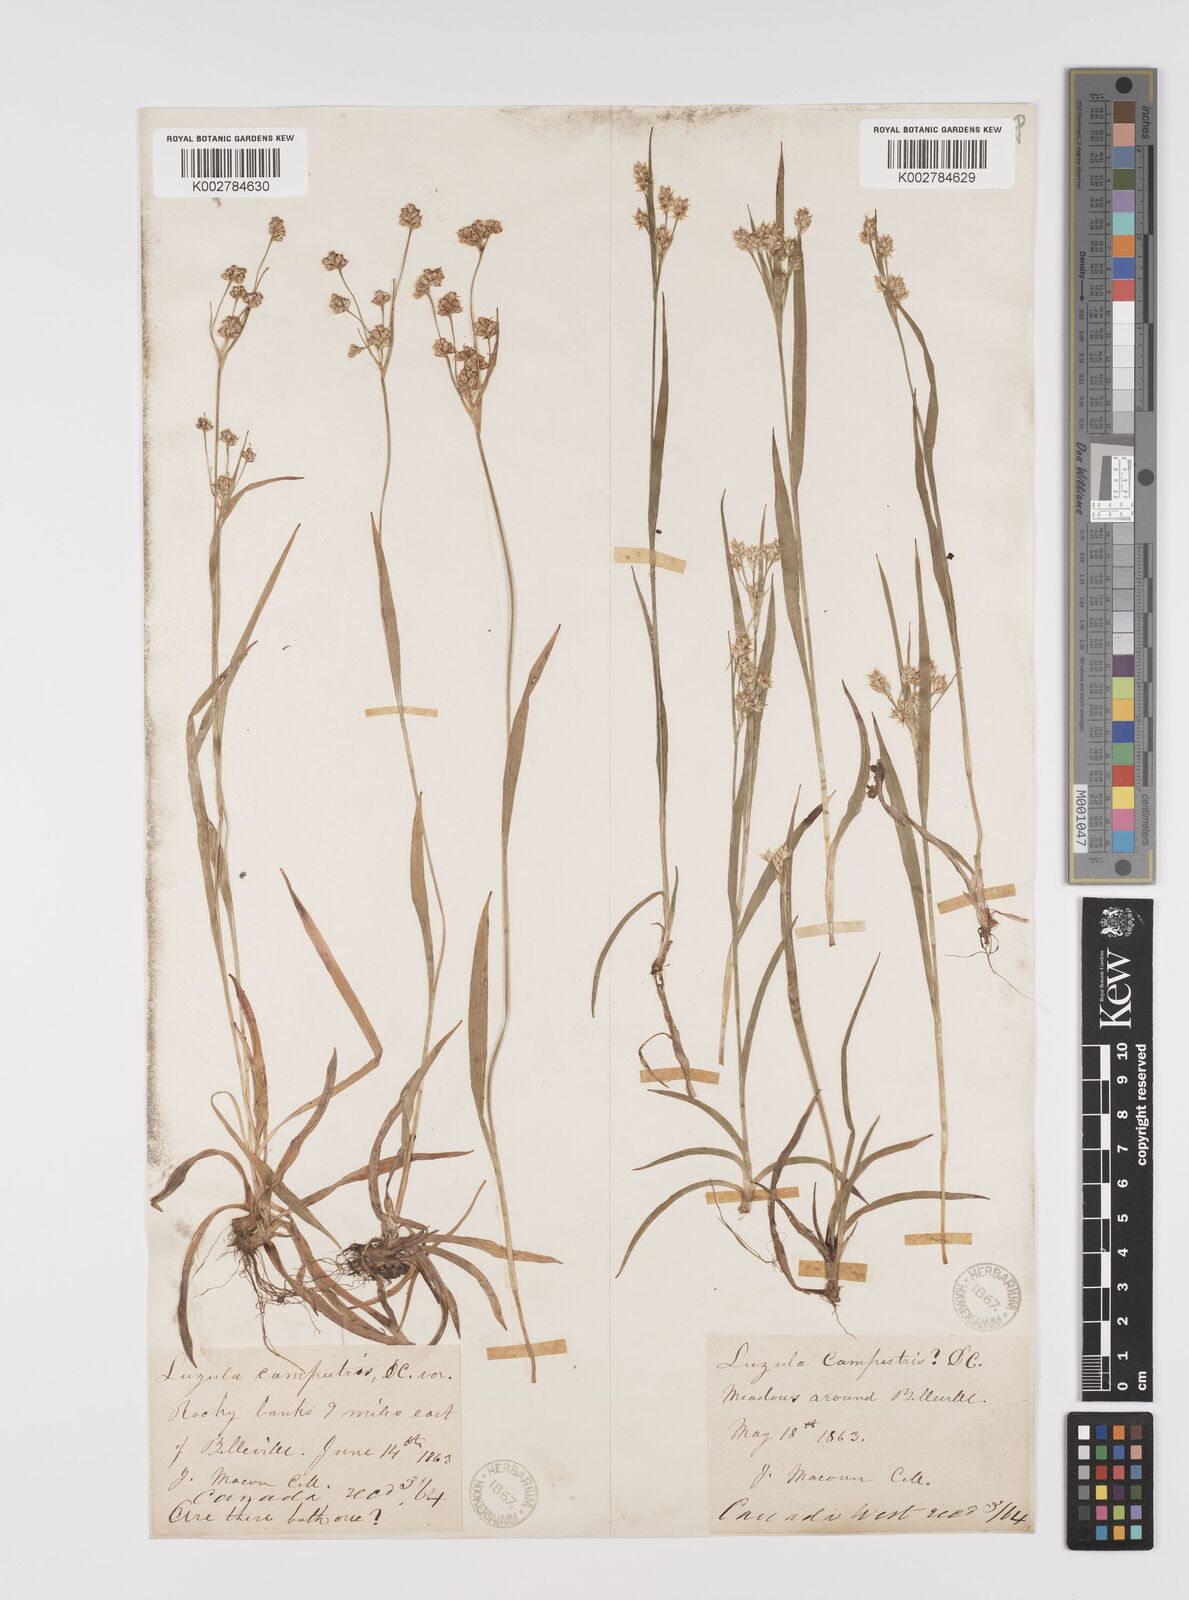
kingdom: Plantae
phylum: Tracheophyta
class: Liliopsida
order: Poales
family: Juncaceae
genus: Luzula
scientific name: Luzula campestris
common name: Field wood-rush
